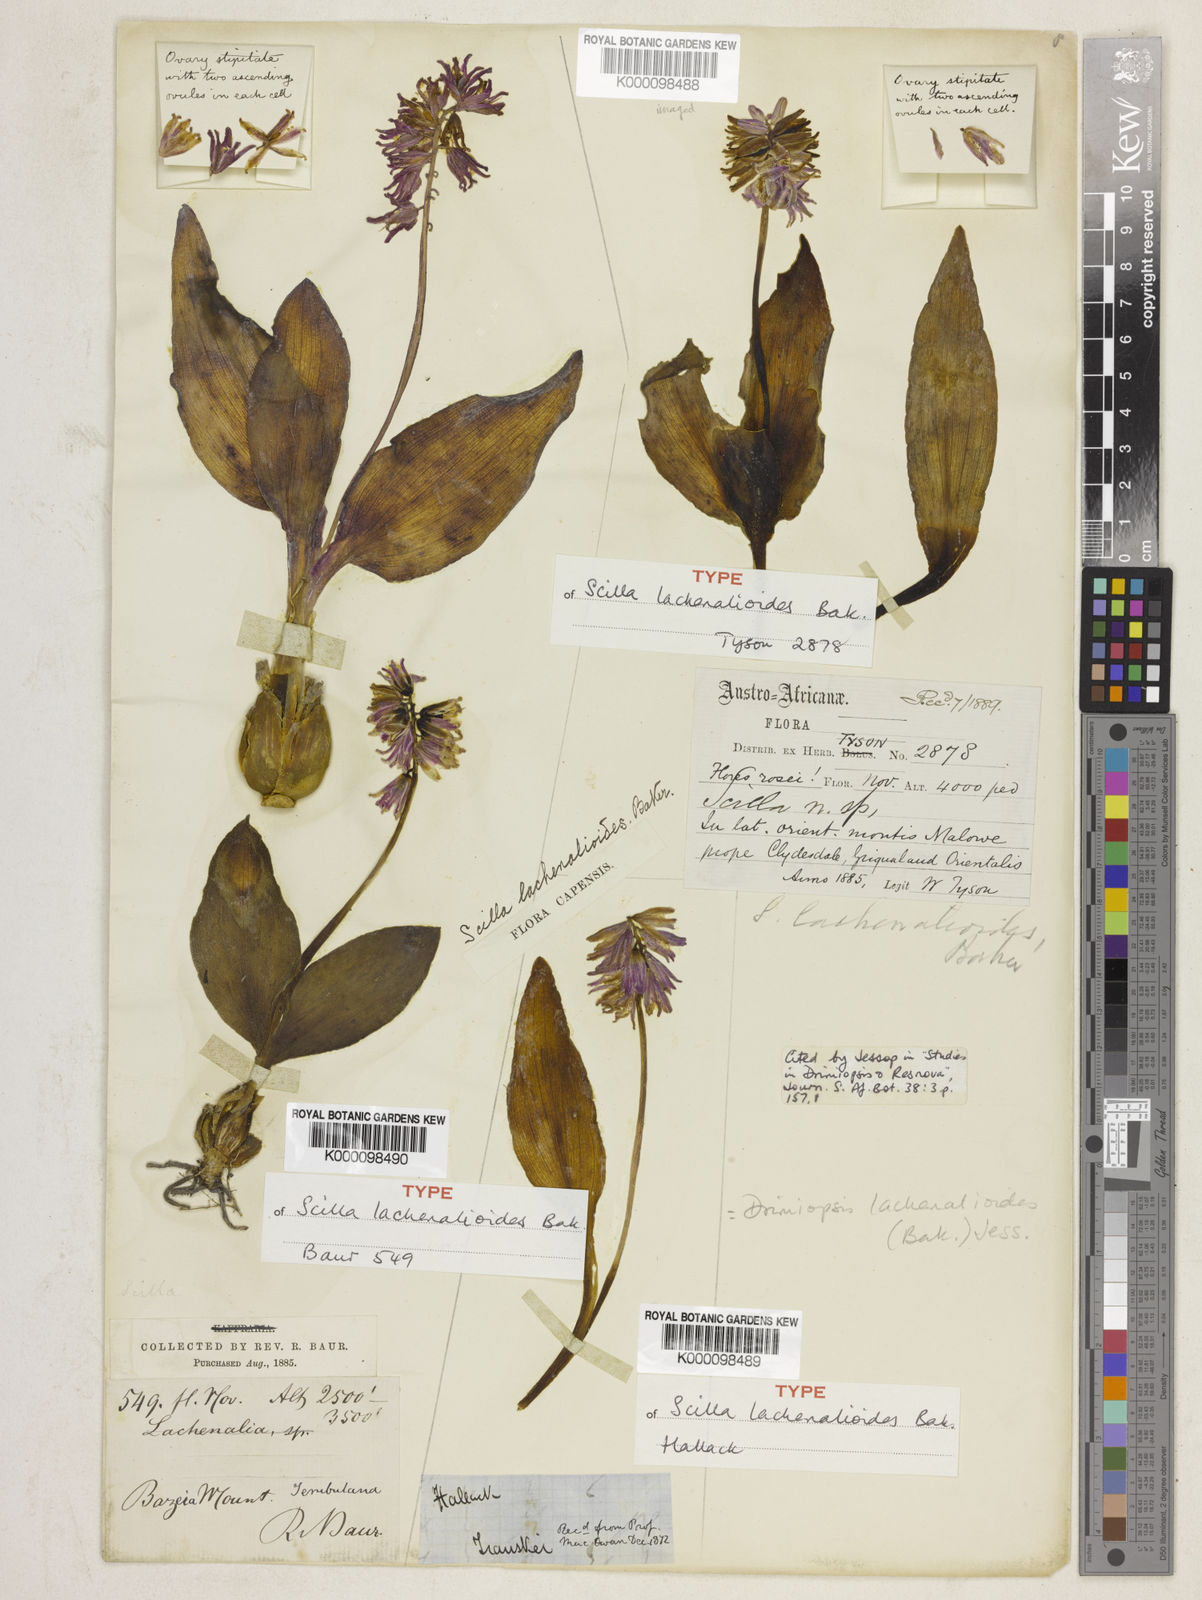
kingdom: Plantae
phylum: Tracheophyta
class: Liliopsida
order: Asparagales
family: Asparagaceae
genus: Resnova
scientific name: Resnova humifusa
